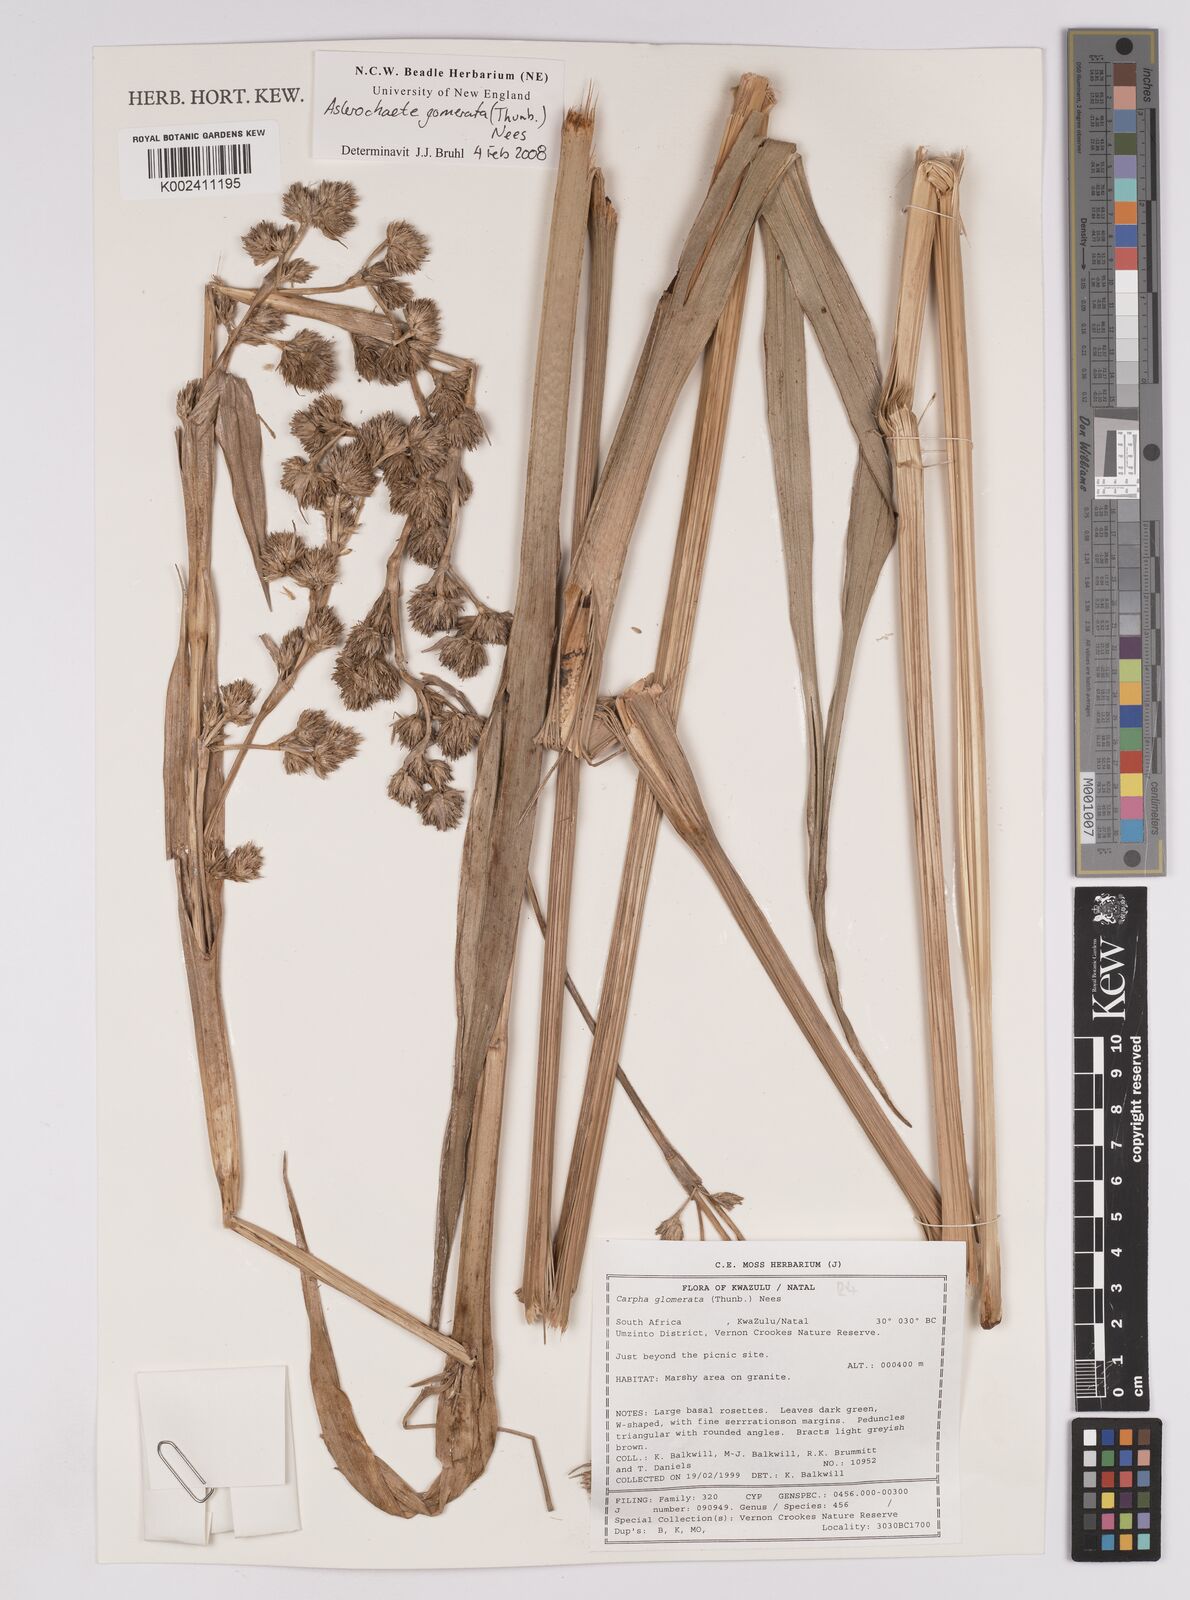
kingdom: Plantae
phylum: Tracheophyta
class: Liliopsida
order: Poales
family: Cyperaceae
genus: Carpha
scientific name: Carpha glomerata
